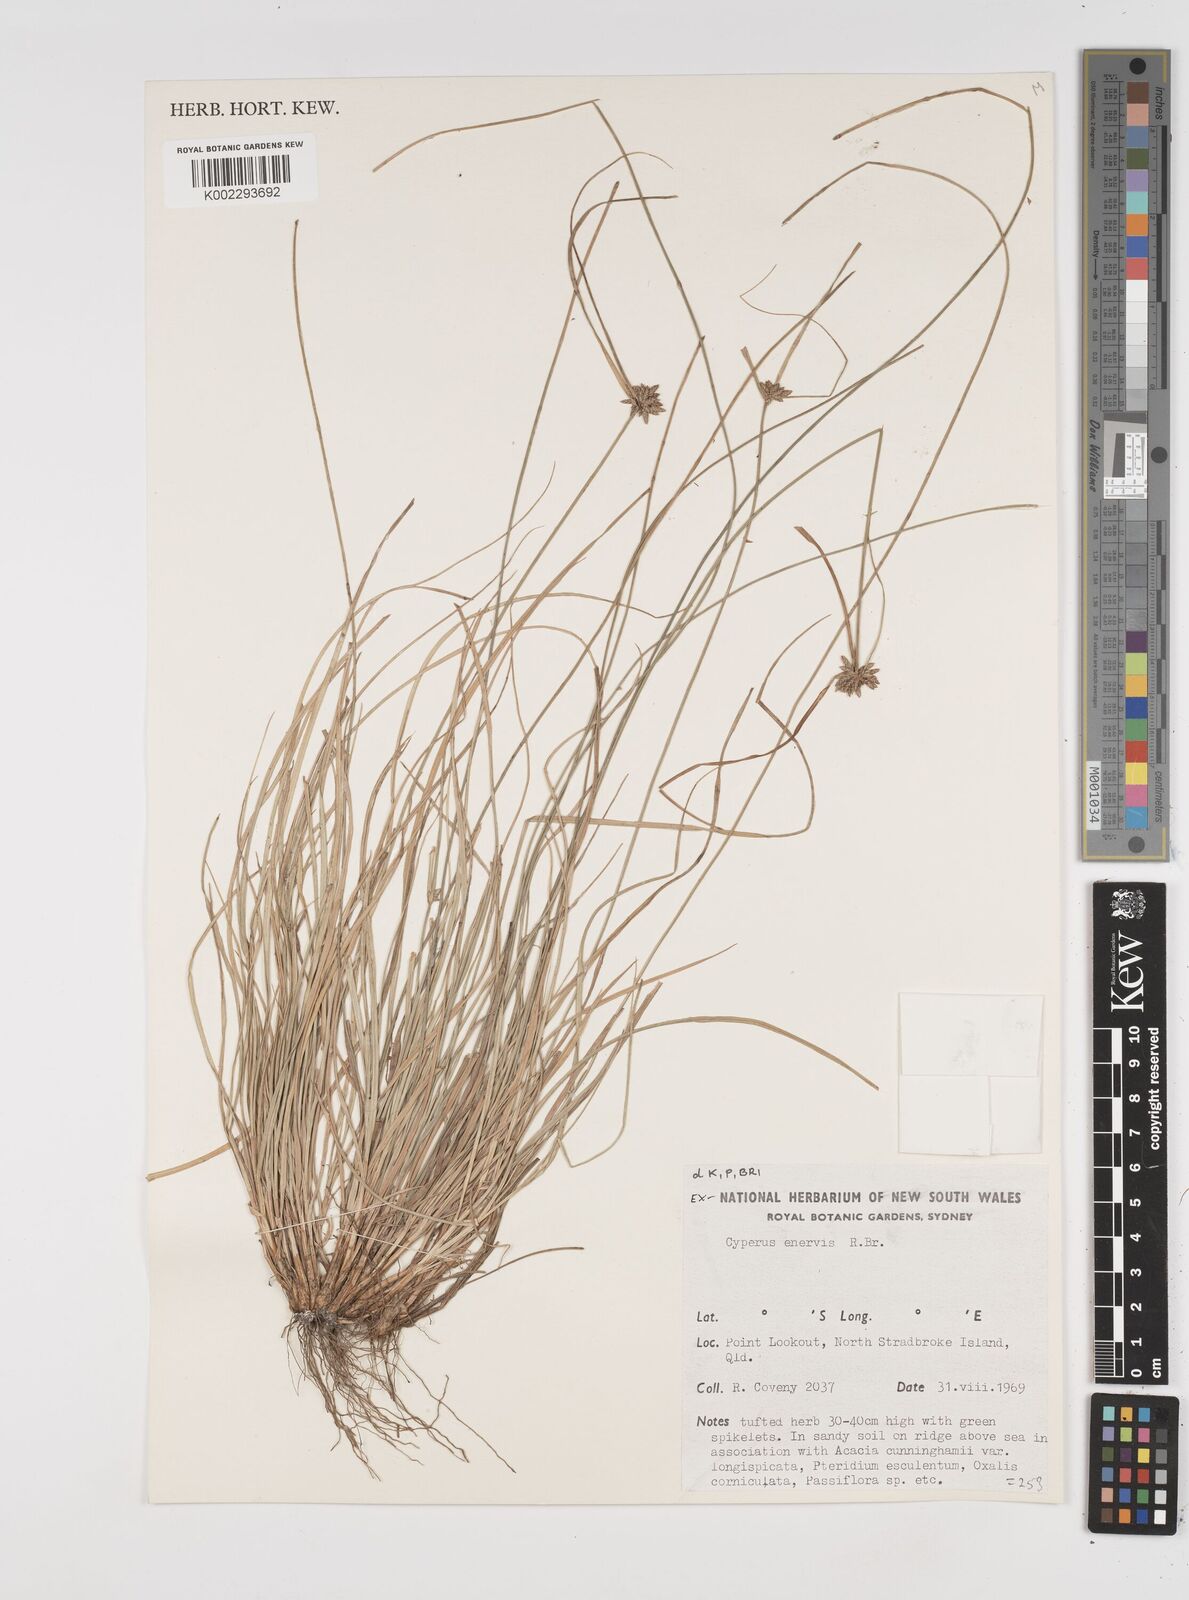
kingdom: Plantae
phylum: Tracheophyta
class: Liliopsida
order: Poales
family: Cyperaceae
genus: Cyperus
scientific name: Cyperus enervis
